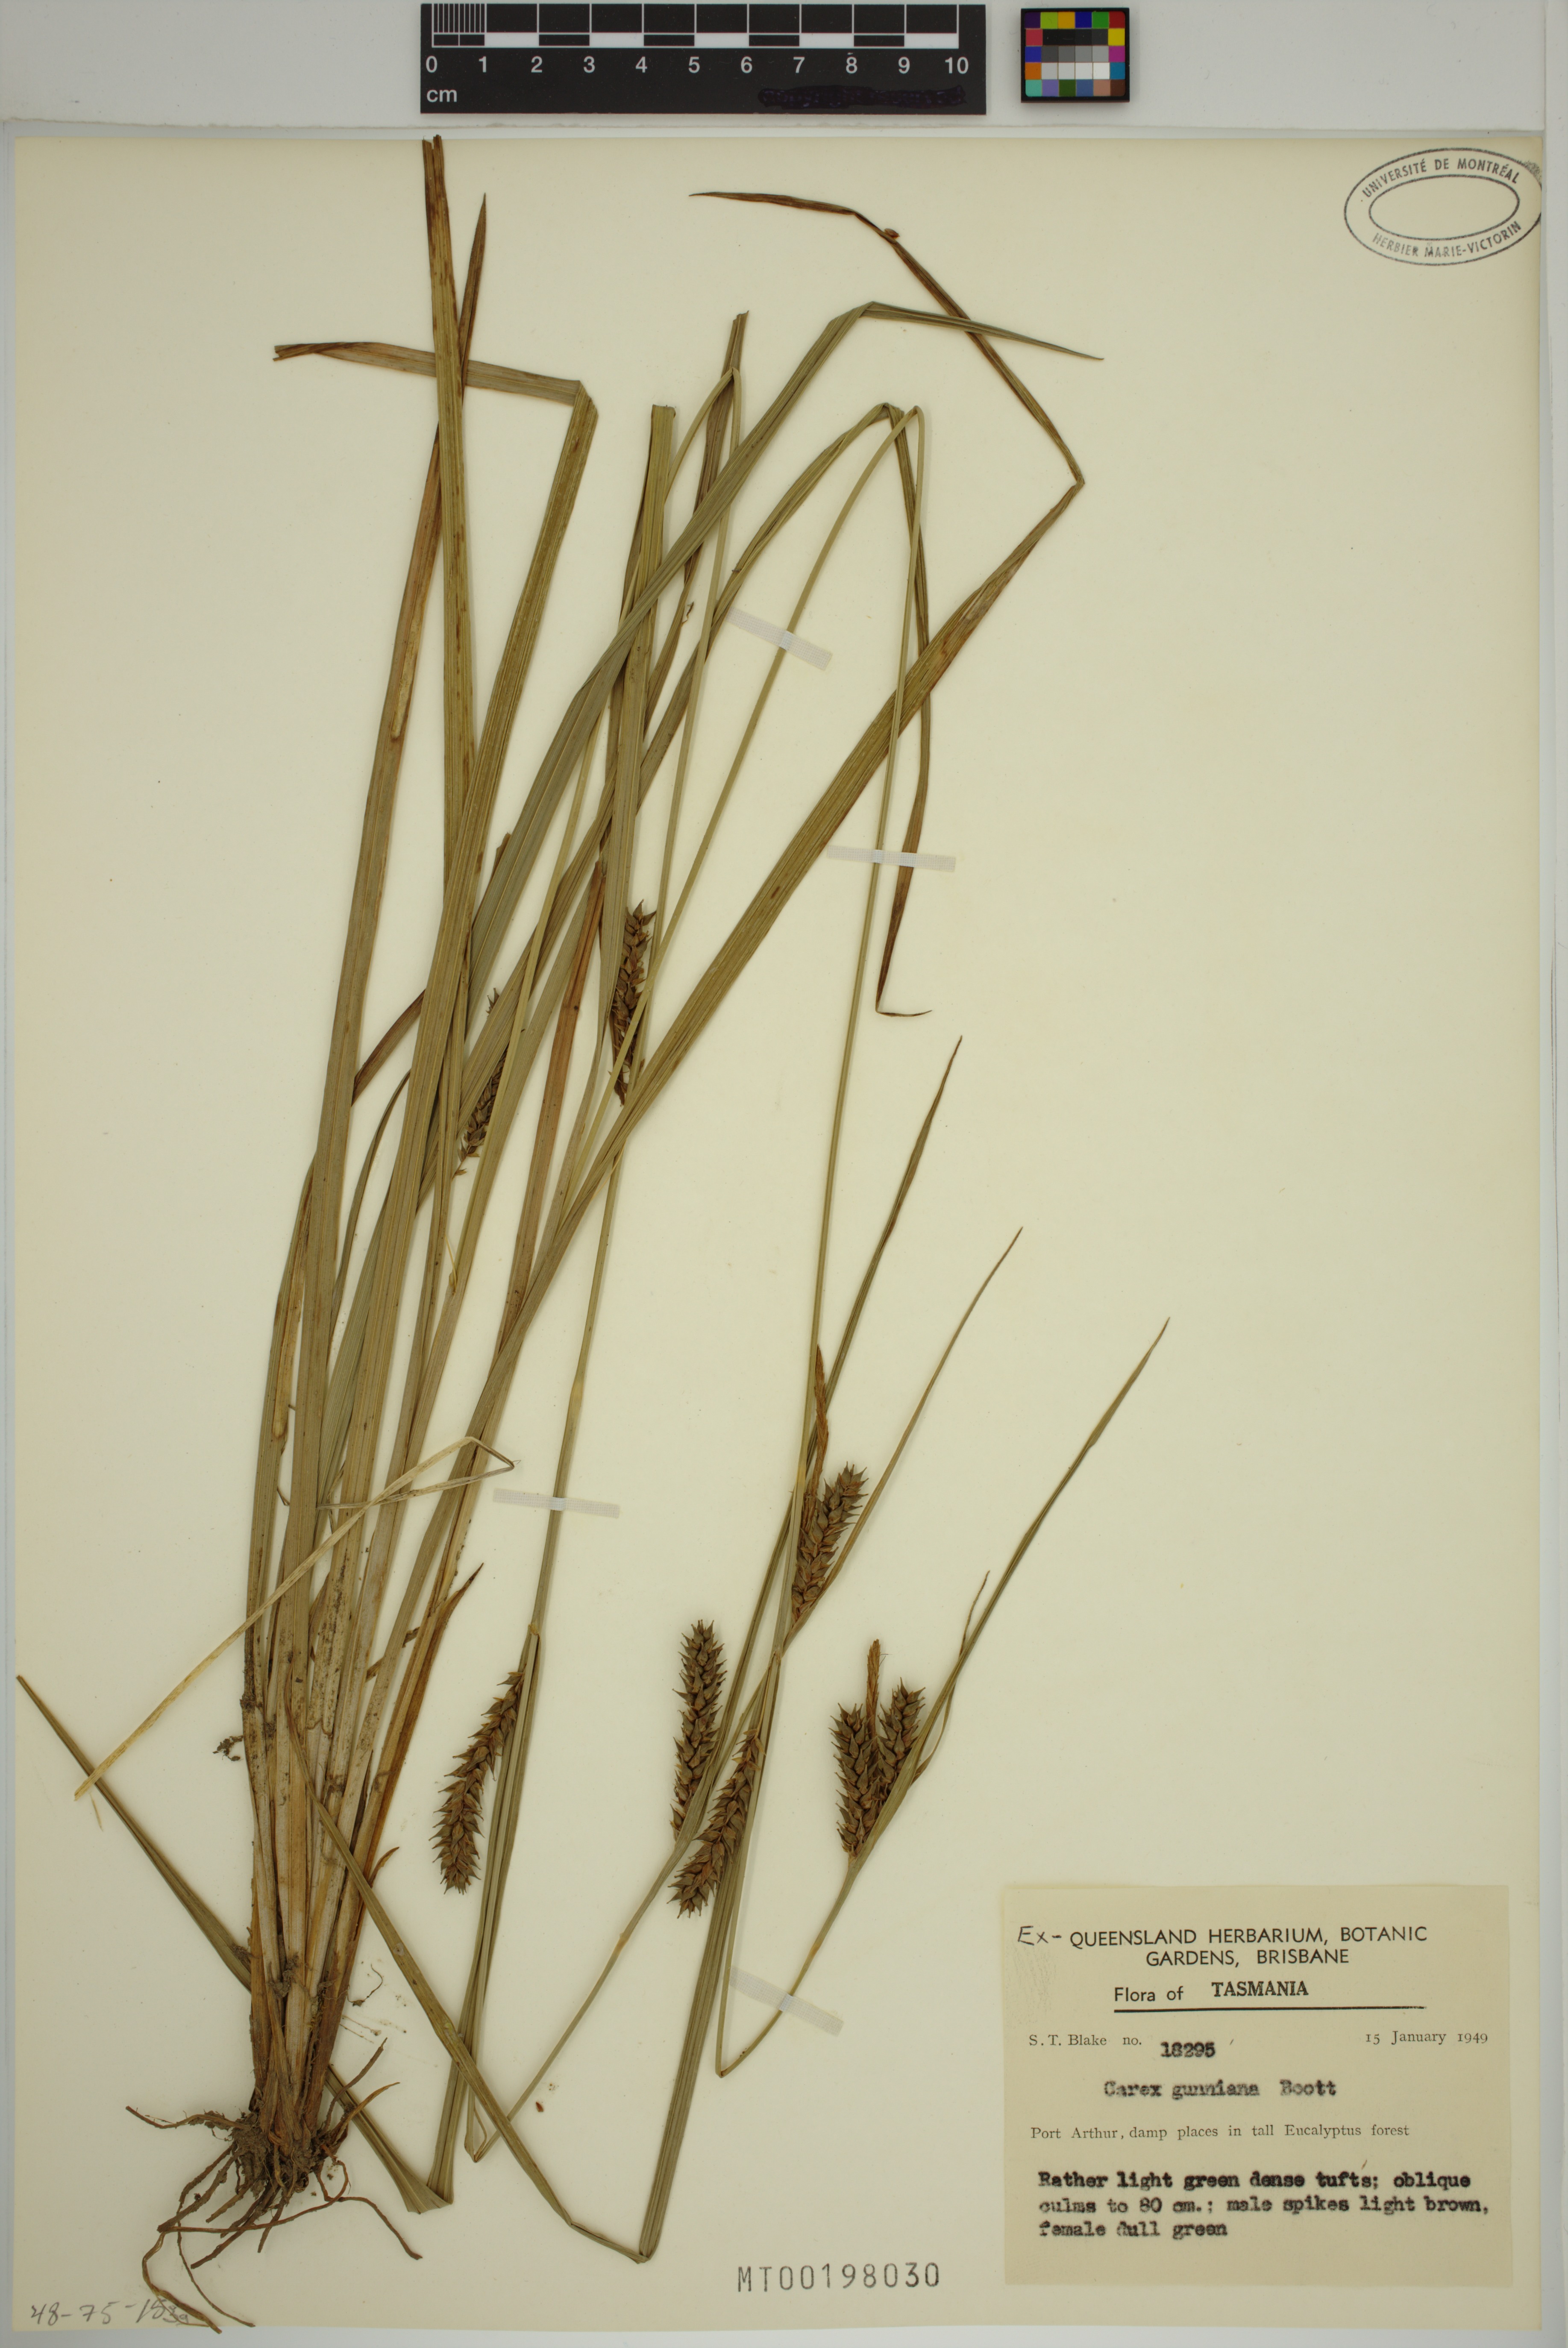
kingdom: Plantae
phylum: Tracheophyta
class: Liliopsida
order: Poales
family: Cyperaceae
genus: Carex
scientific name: Carex gunniana
